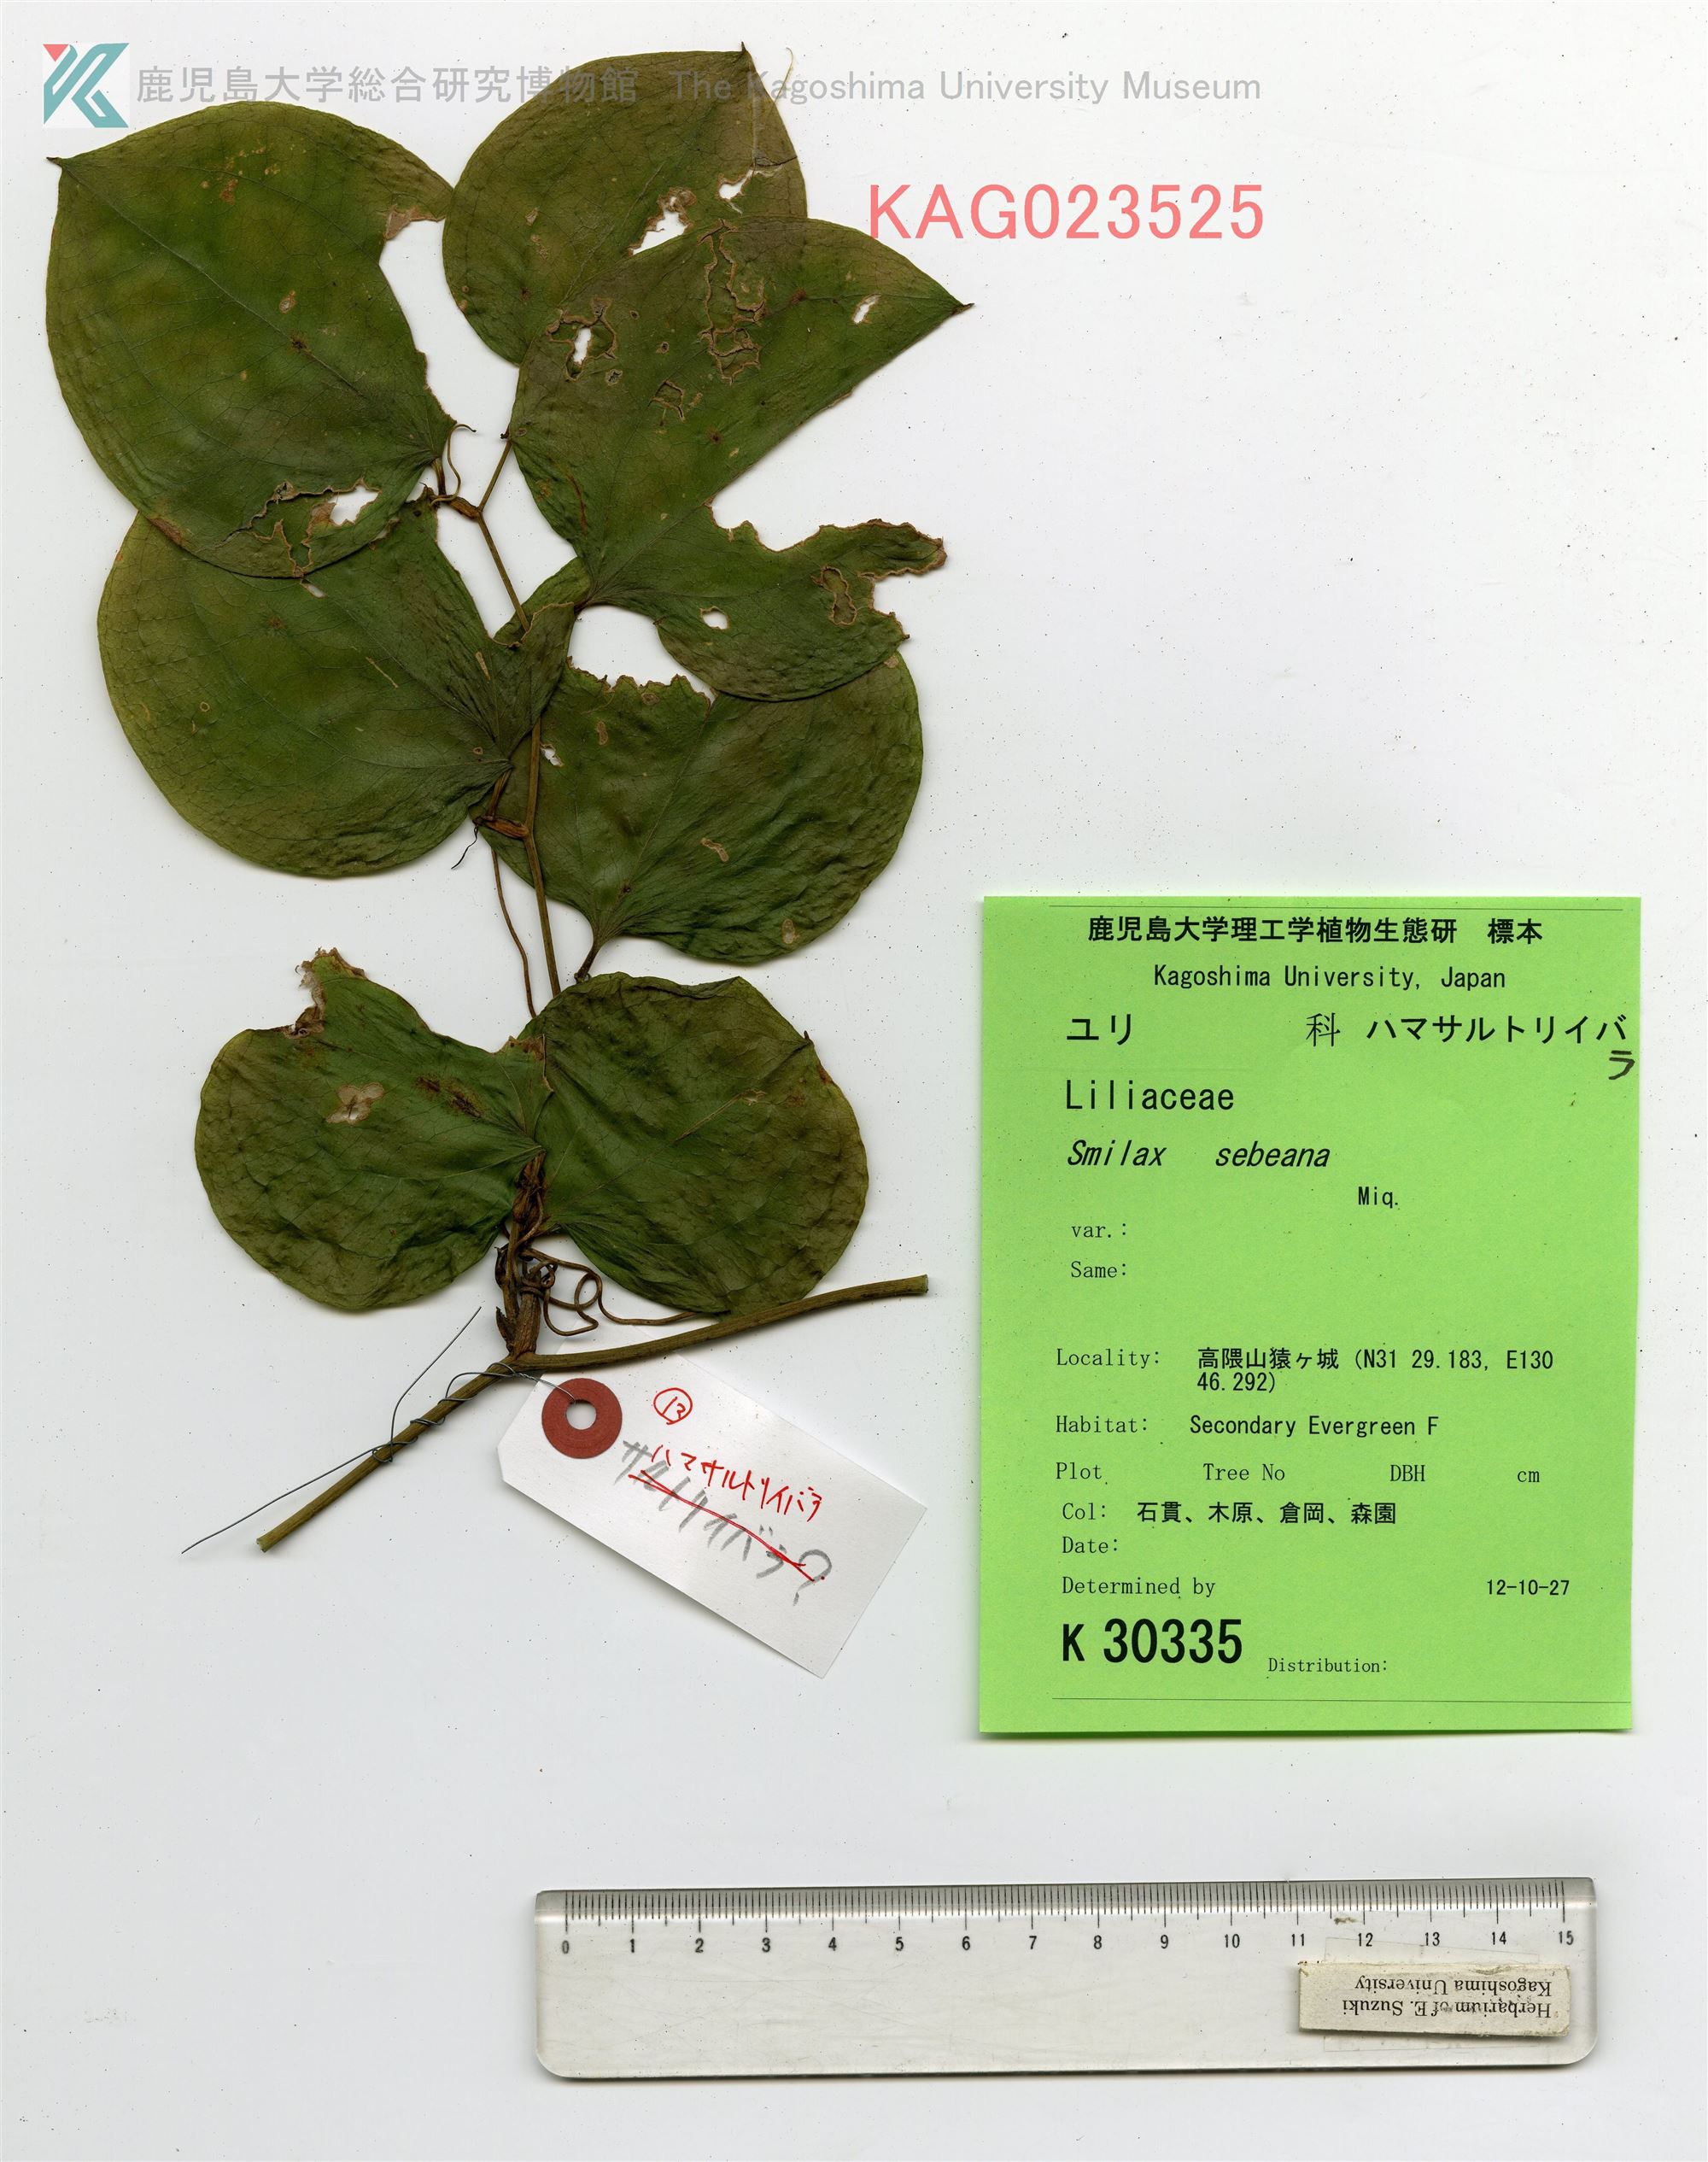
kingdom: Plantae
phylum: Tracheophyta
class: Liliopsida
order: Liliales
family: Smilacaceae
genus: Smilax
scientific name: Smilax sebeana
